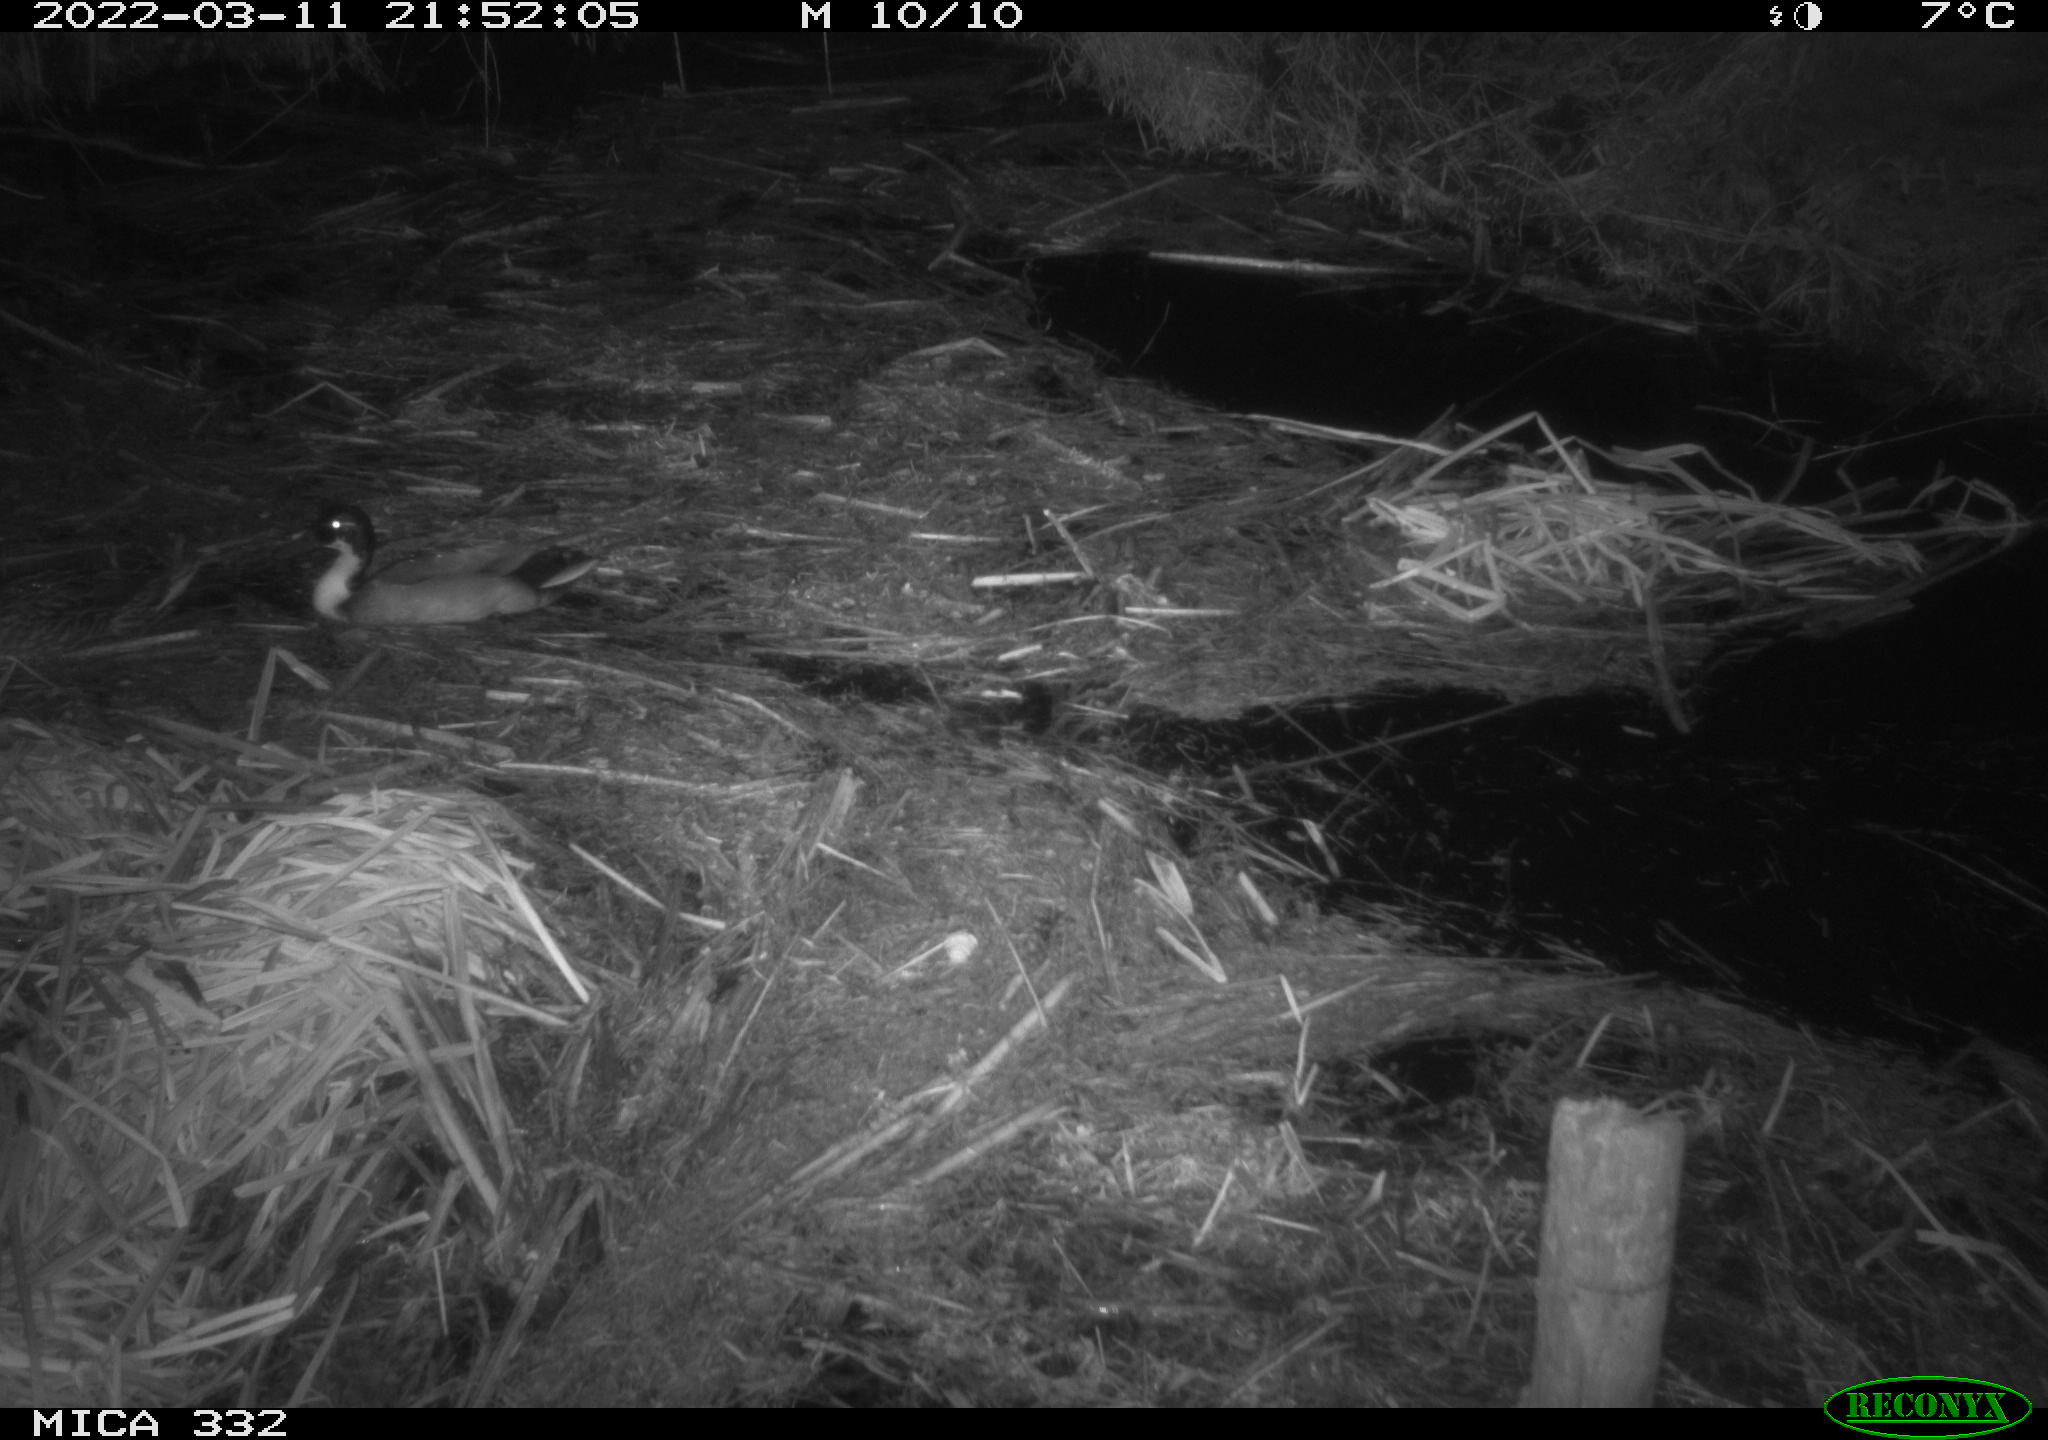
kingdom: Animalia
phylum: Chordata
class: Aves
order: Anseriformes
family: Anatidae
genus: Anas
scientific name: Anas platyrhynchos
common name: Mallard
